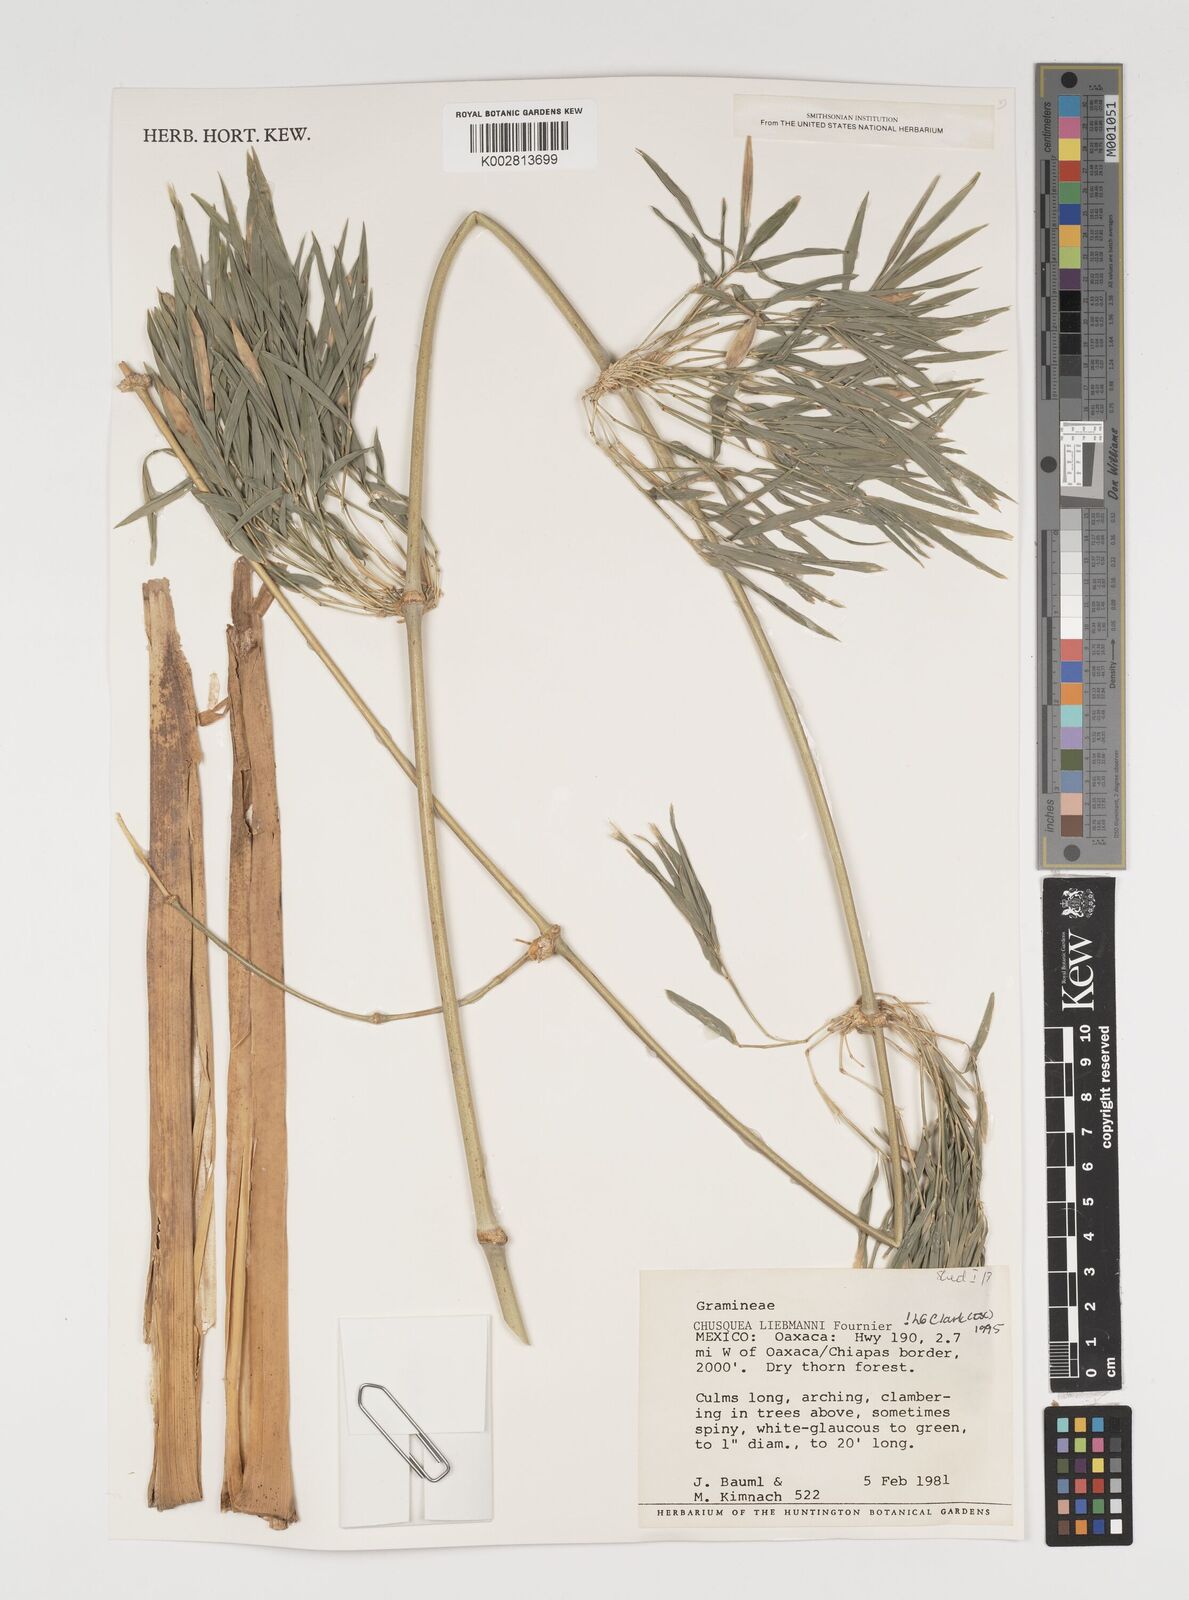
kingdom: Plantae
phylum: Tracheophyta
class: Liliopsida
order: Poales
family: Poaceae
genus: Chusquea
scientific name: Chusquea liebmannii
